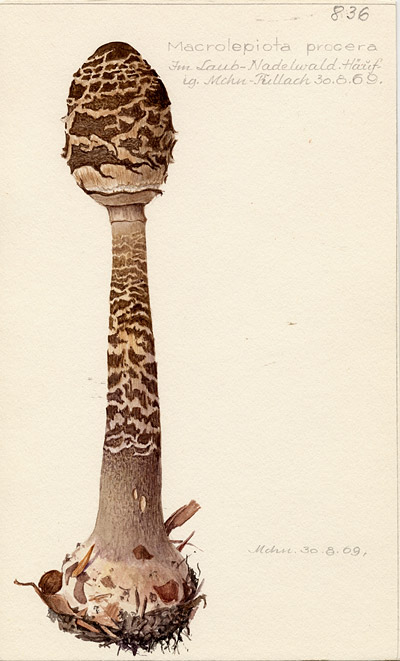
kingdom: Fungi
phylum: Basidiomycota
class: Agaricomycetes
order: Agaricales
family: Agaricaceae
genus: Macrolepiota
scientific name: Macrolepiota procera
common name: Parasol
